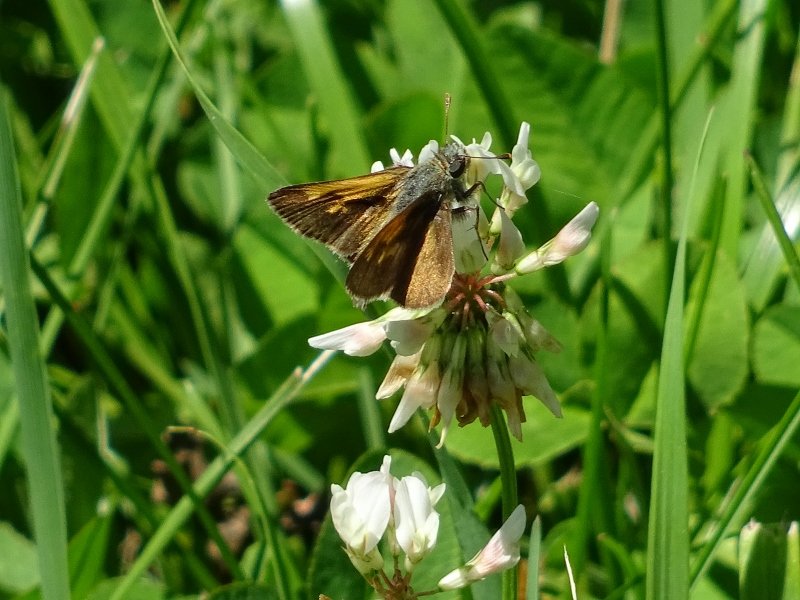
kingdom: Animalia
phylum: Arthropoda
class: Insecta
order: Lepidoptera
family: Hesperiidae
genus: Polites
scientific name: Polites themistocles
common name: Tawny-edged Skipper
